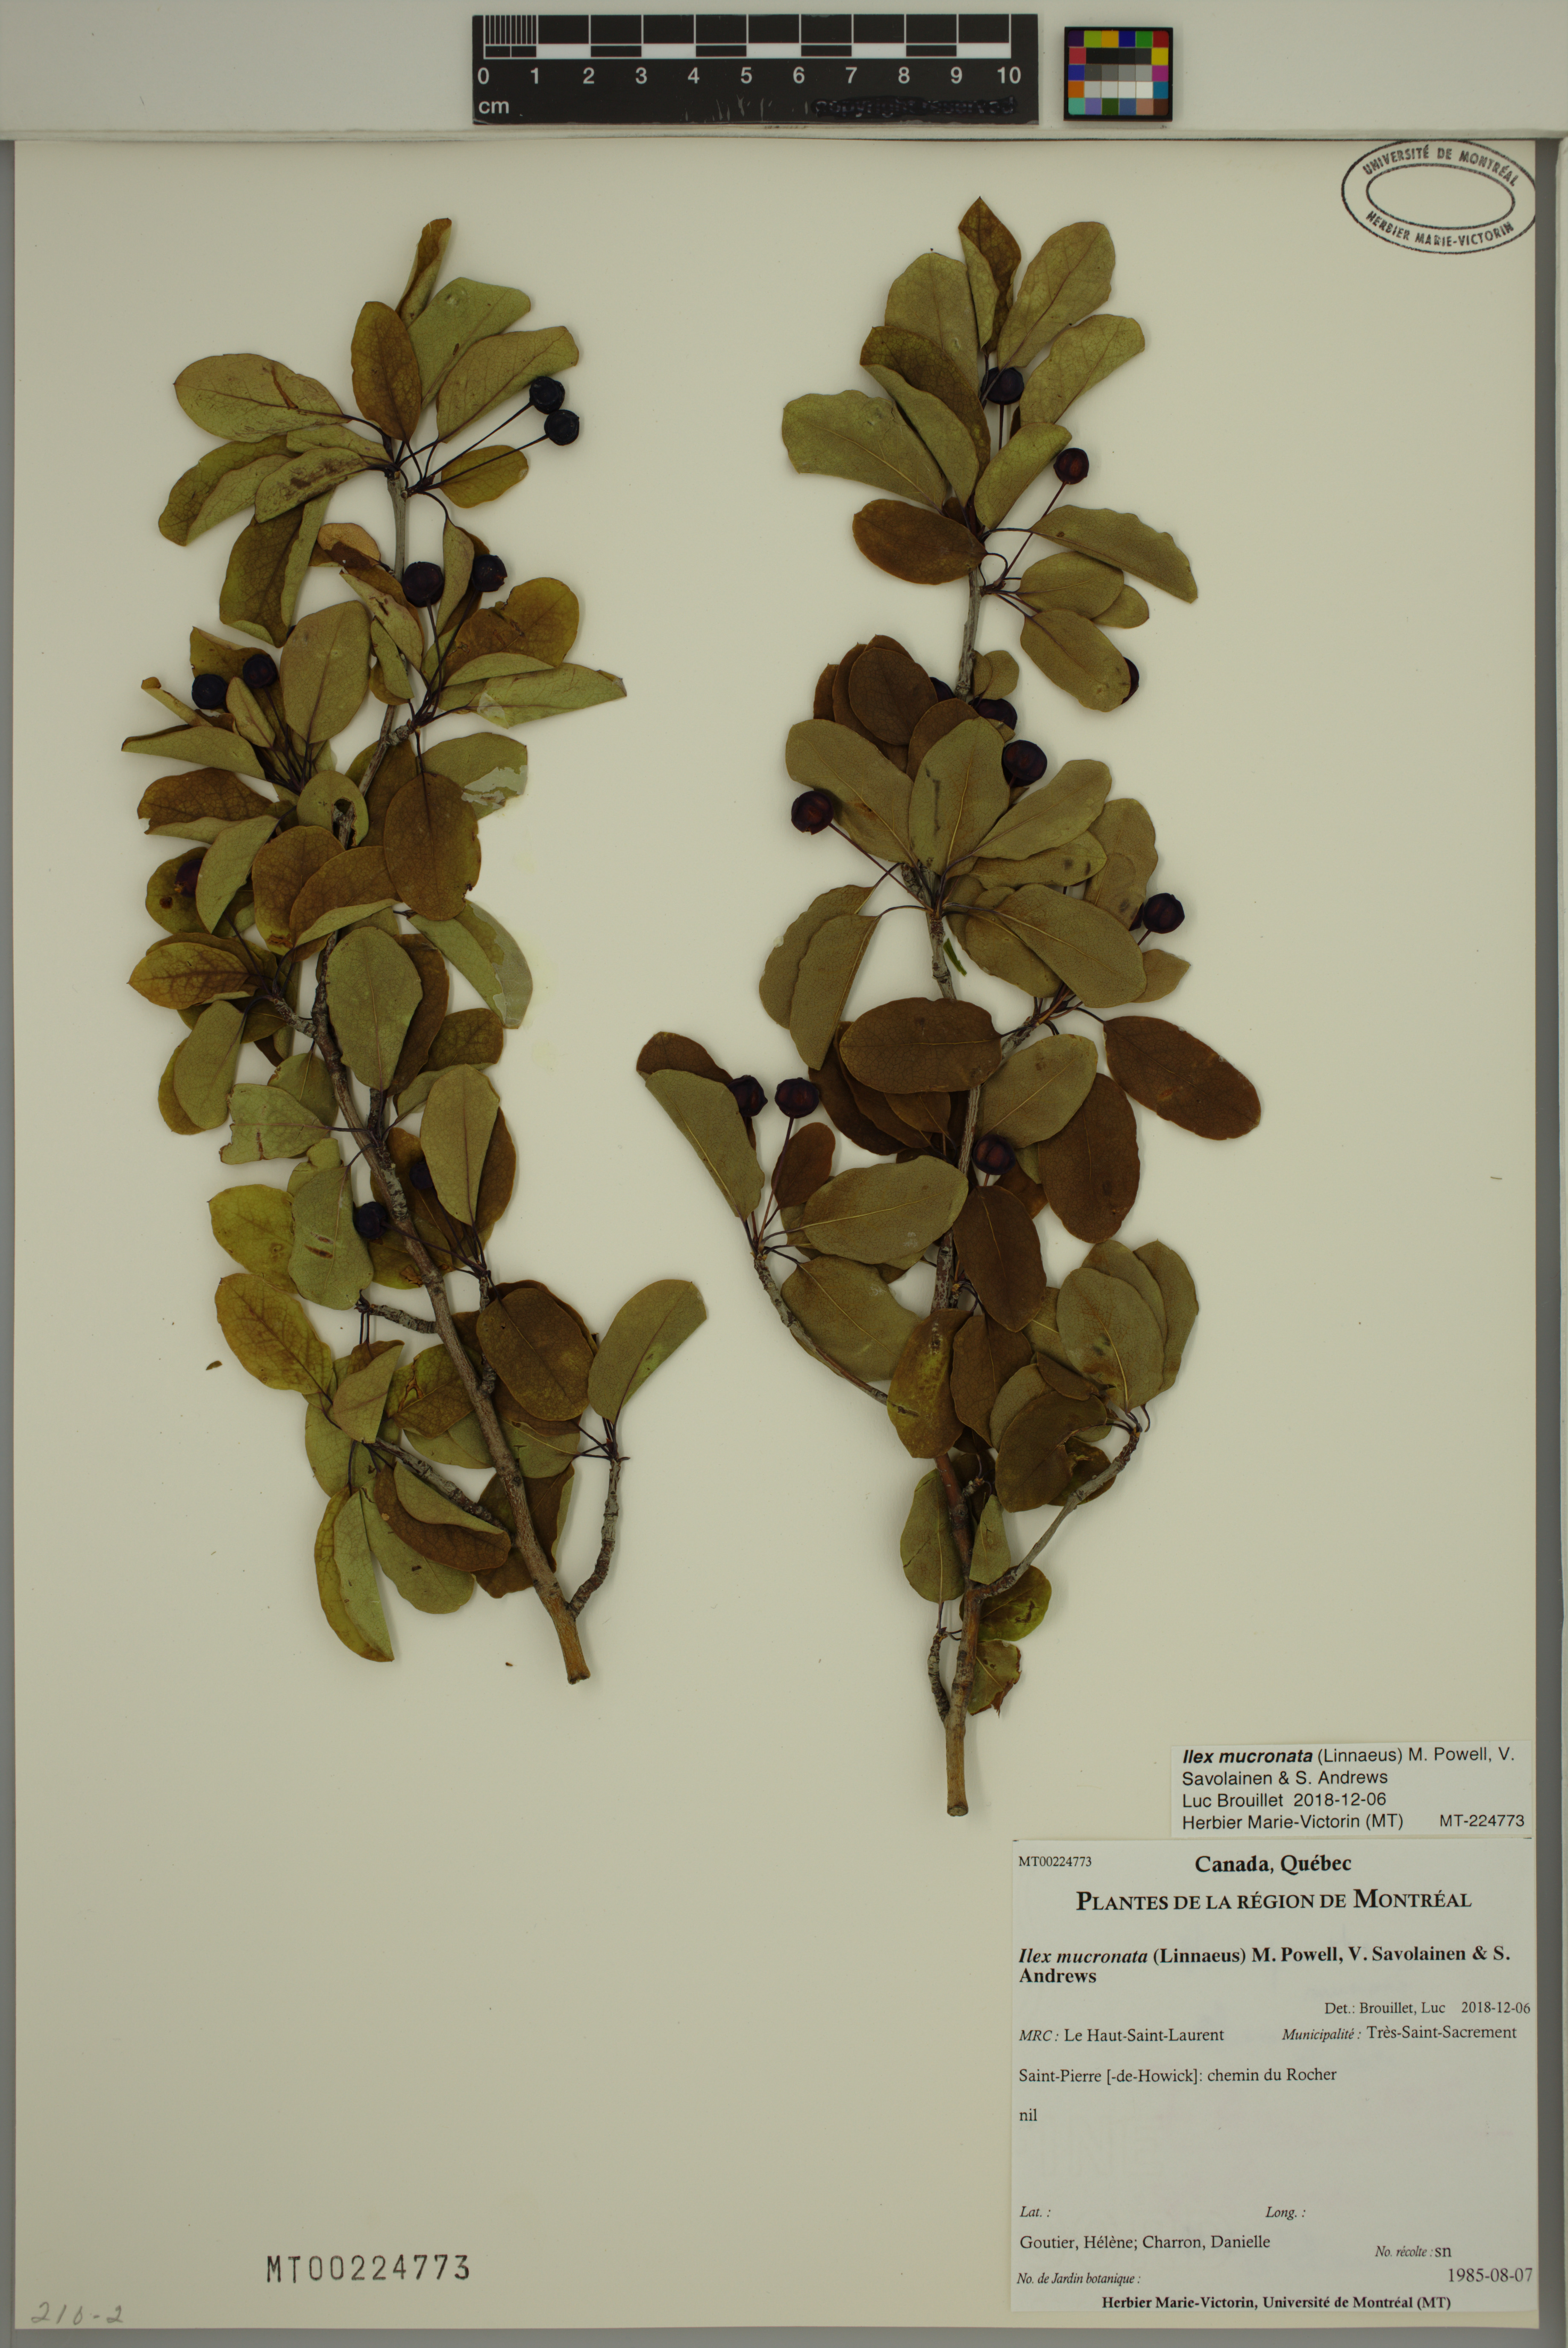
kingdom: Plantae
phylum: Tracheophyta
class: Magnoliopsida
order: Aquifoliales
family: Aquifoliaceae
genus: Ilex
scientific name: Ilex mucronata
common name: Catberry
